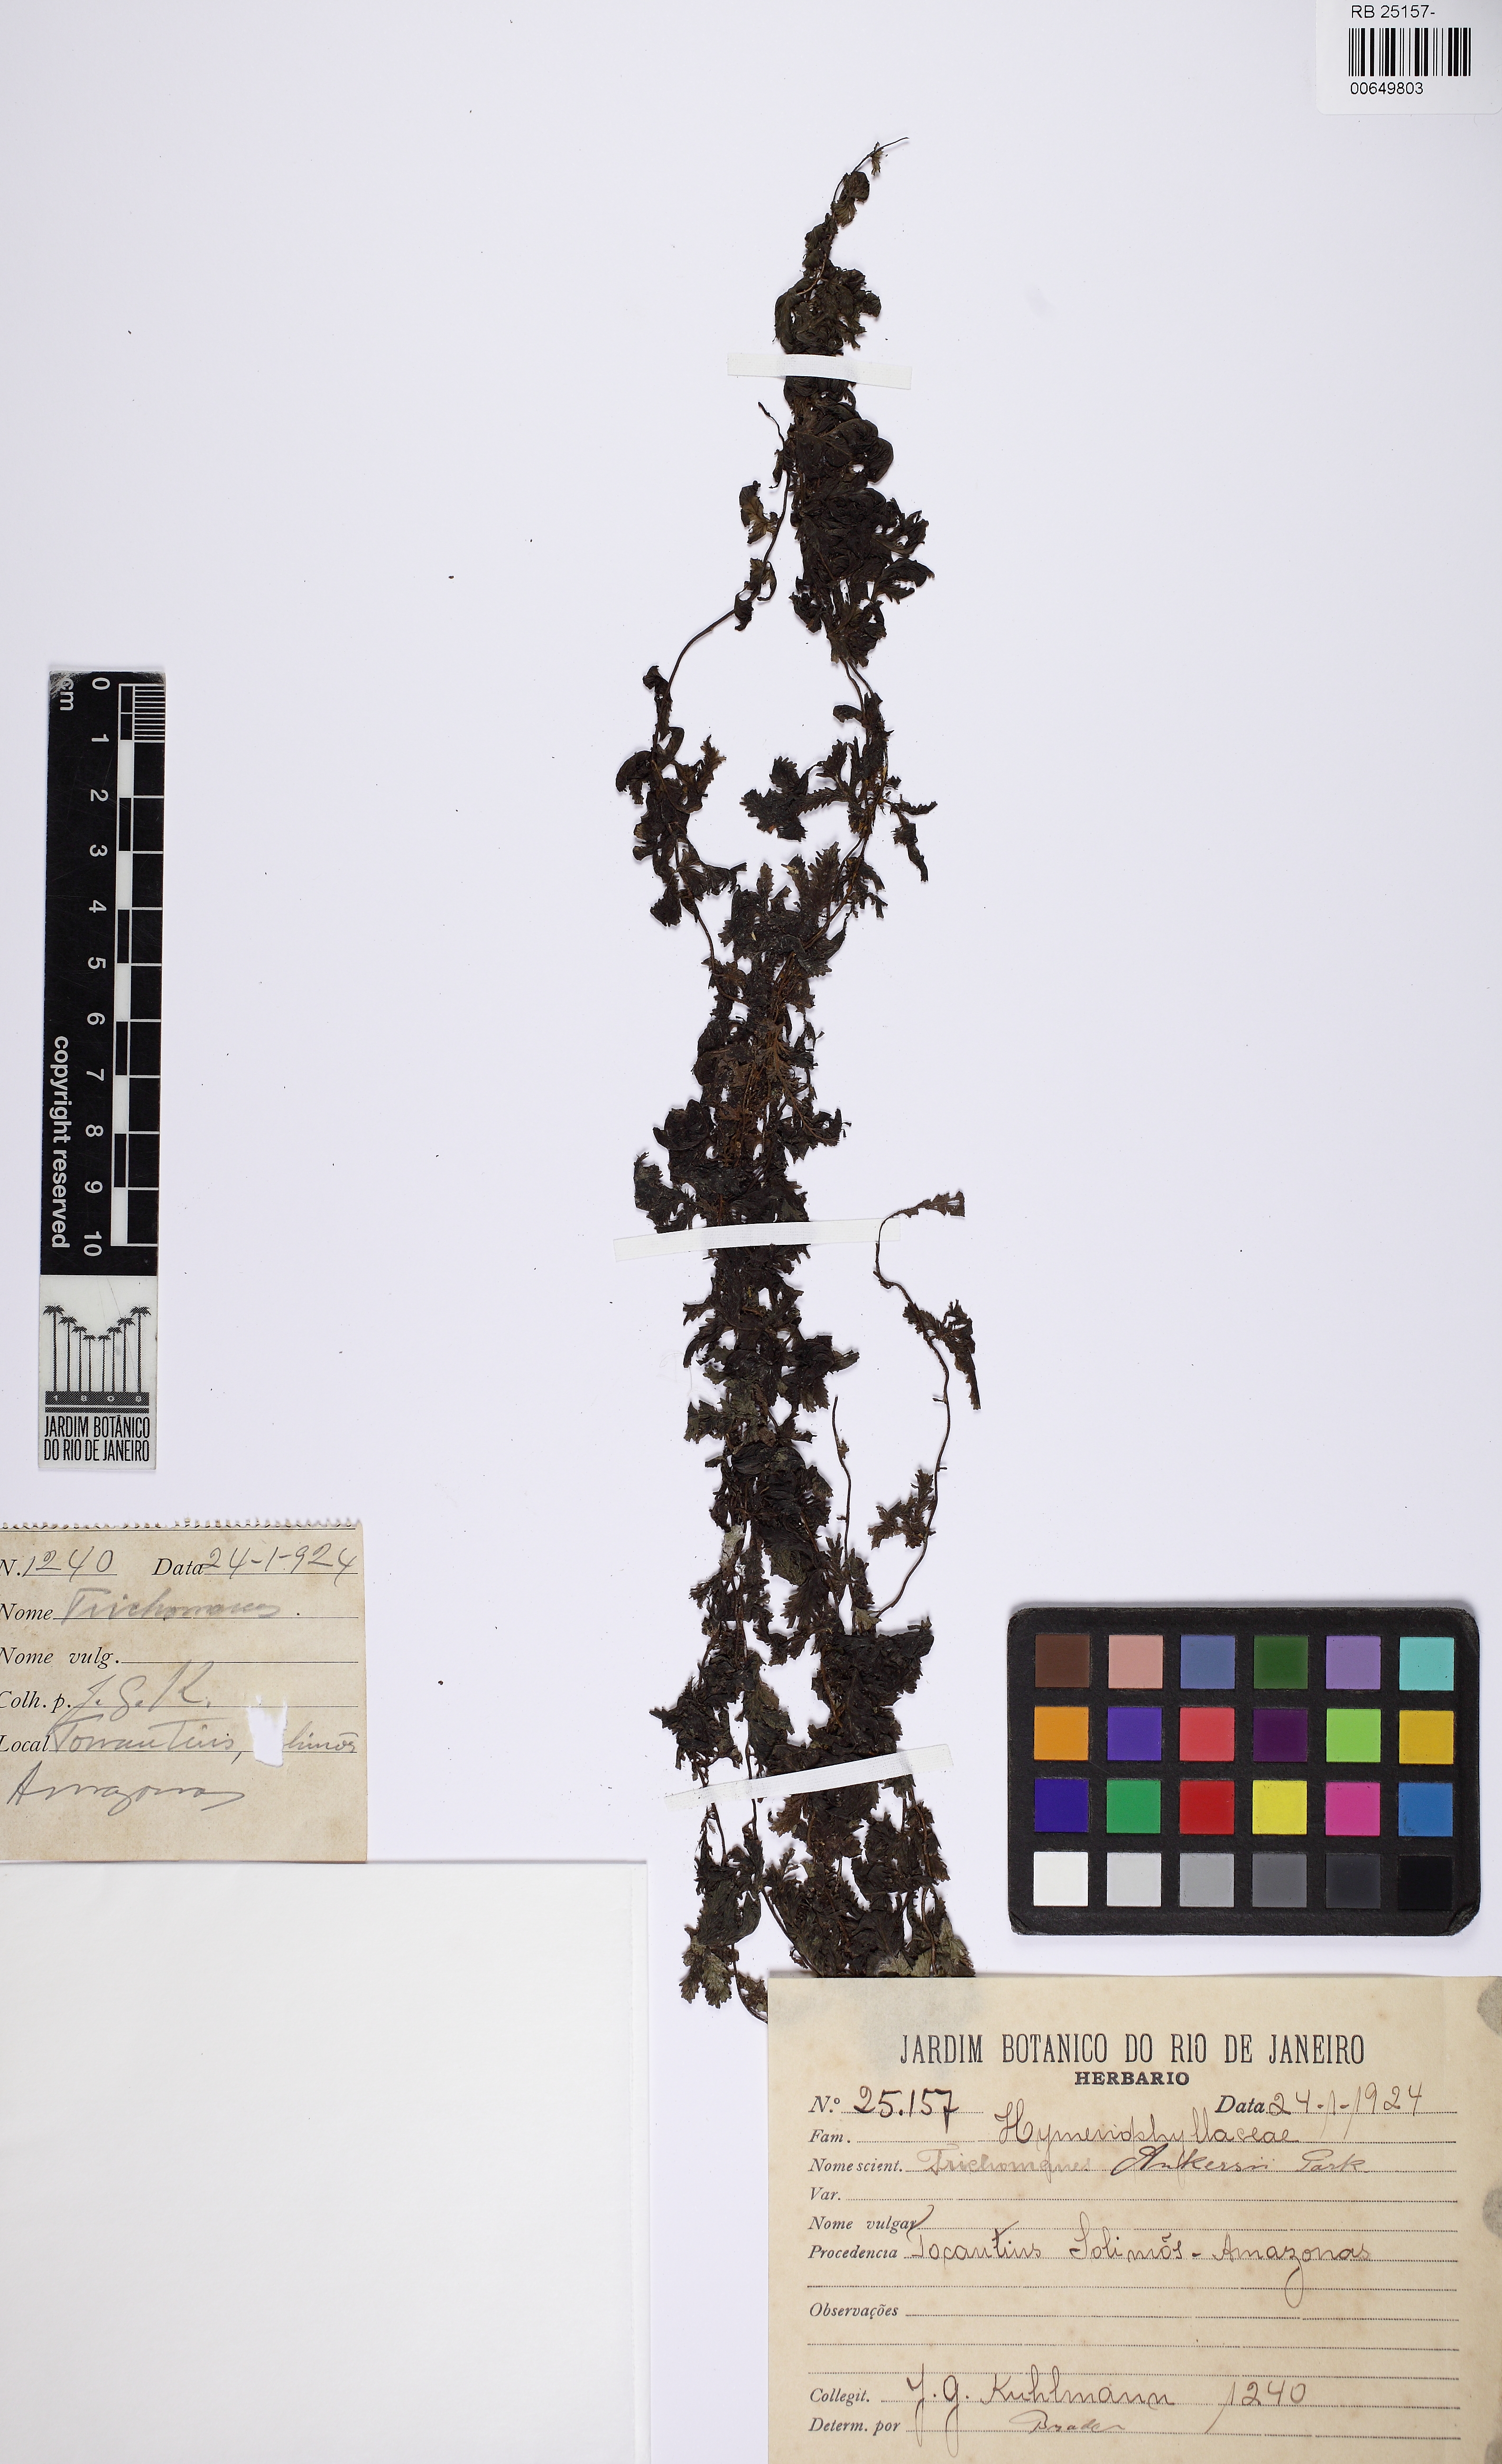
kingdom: Plantae
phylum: Tracheophyta
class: Polypodiopsida
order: Hymenophyllales
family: Hymenophyllaceae
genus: Trichomanes
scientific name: Trichomanes ankersii
